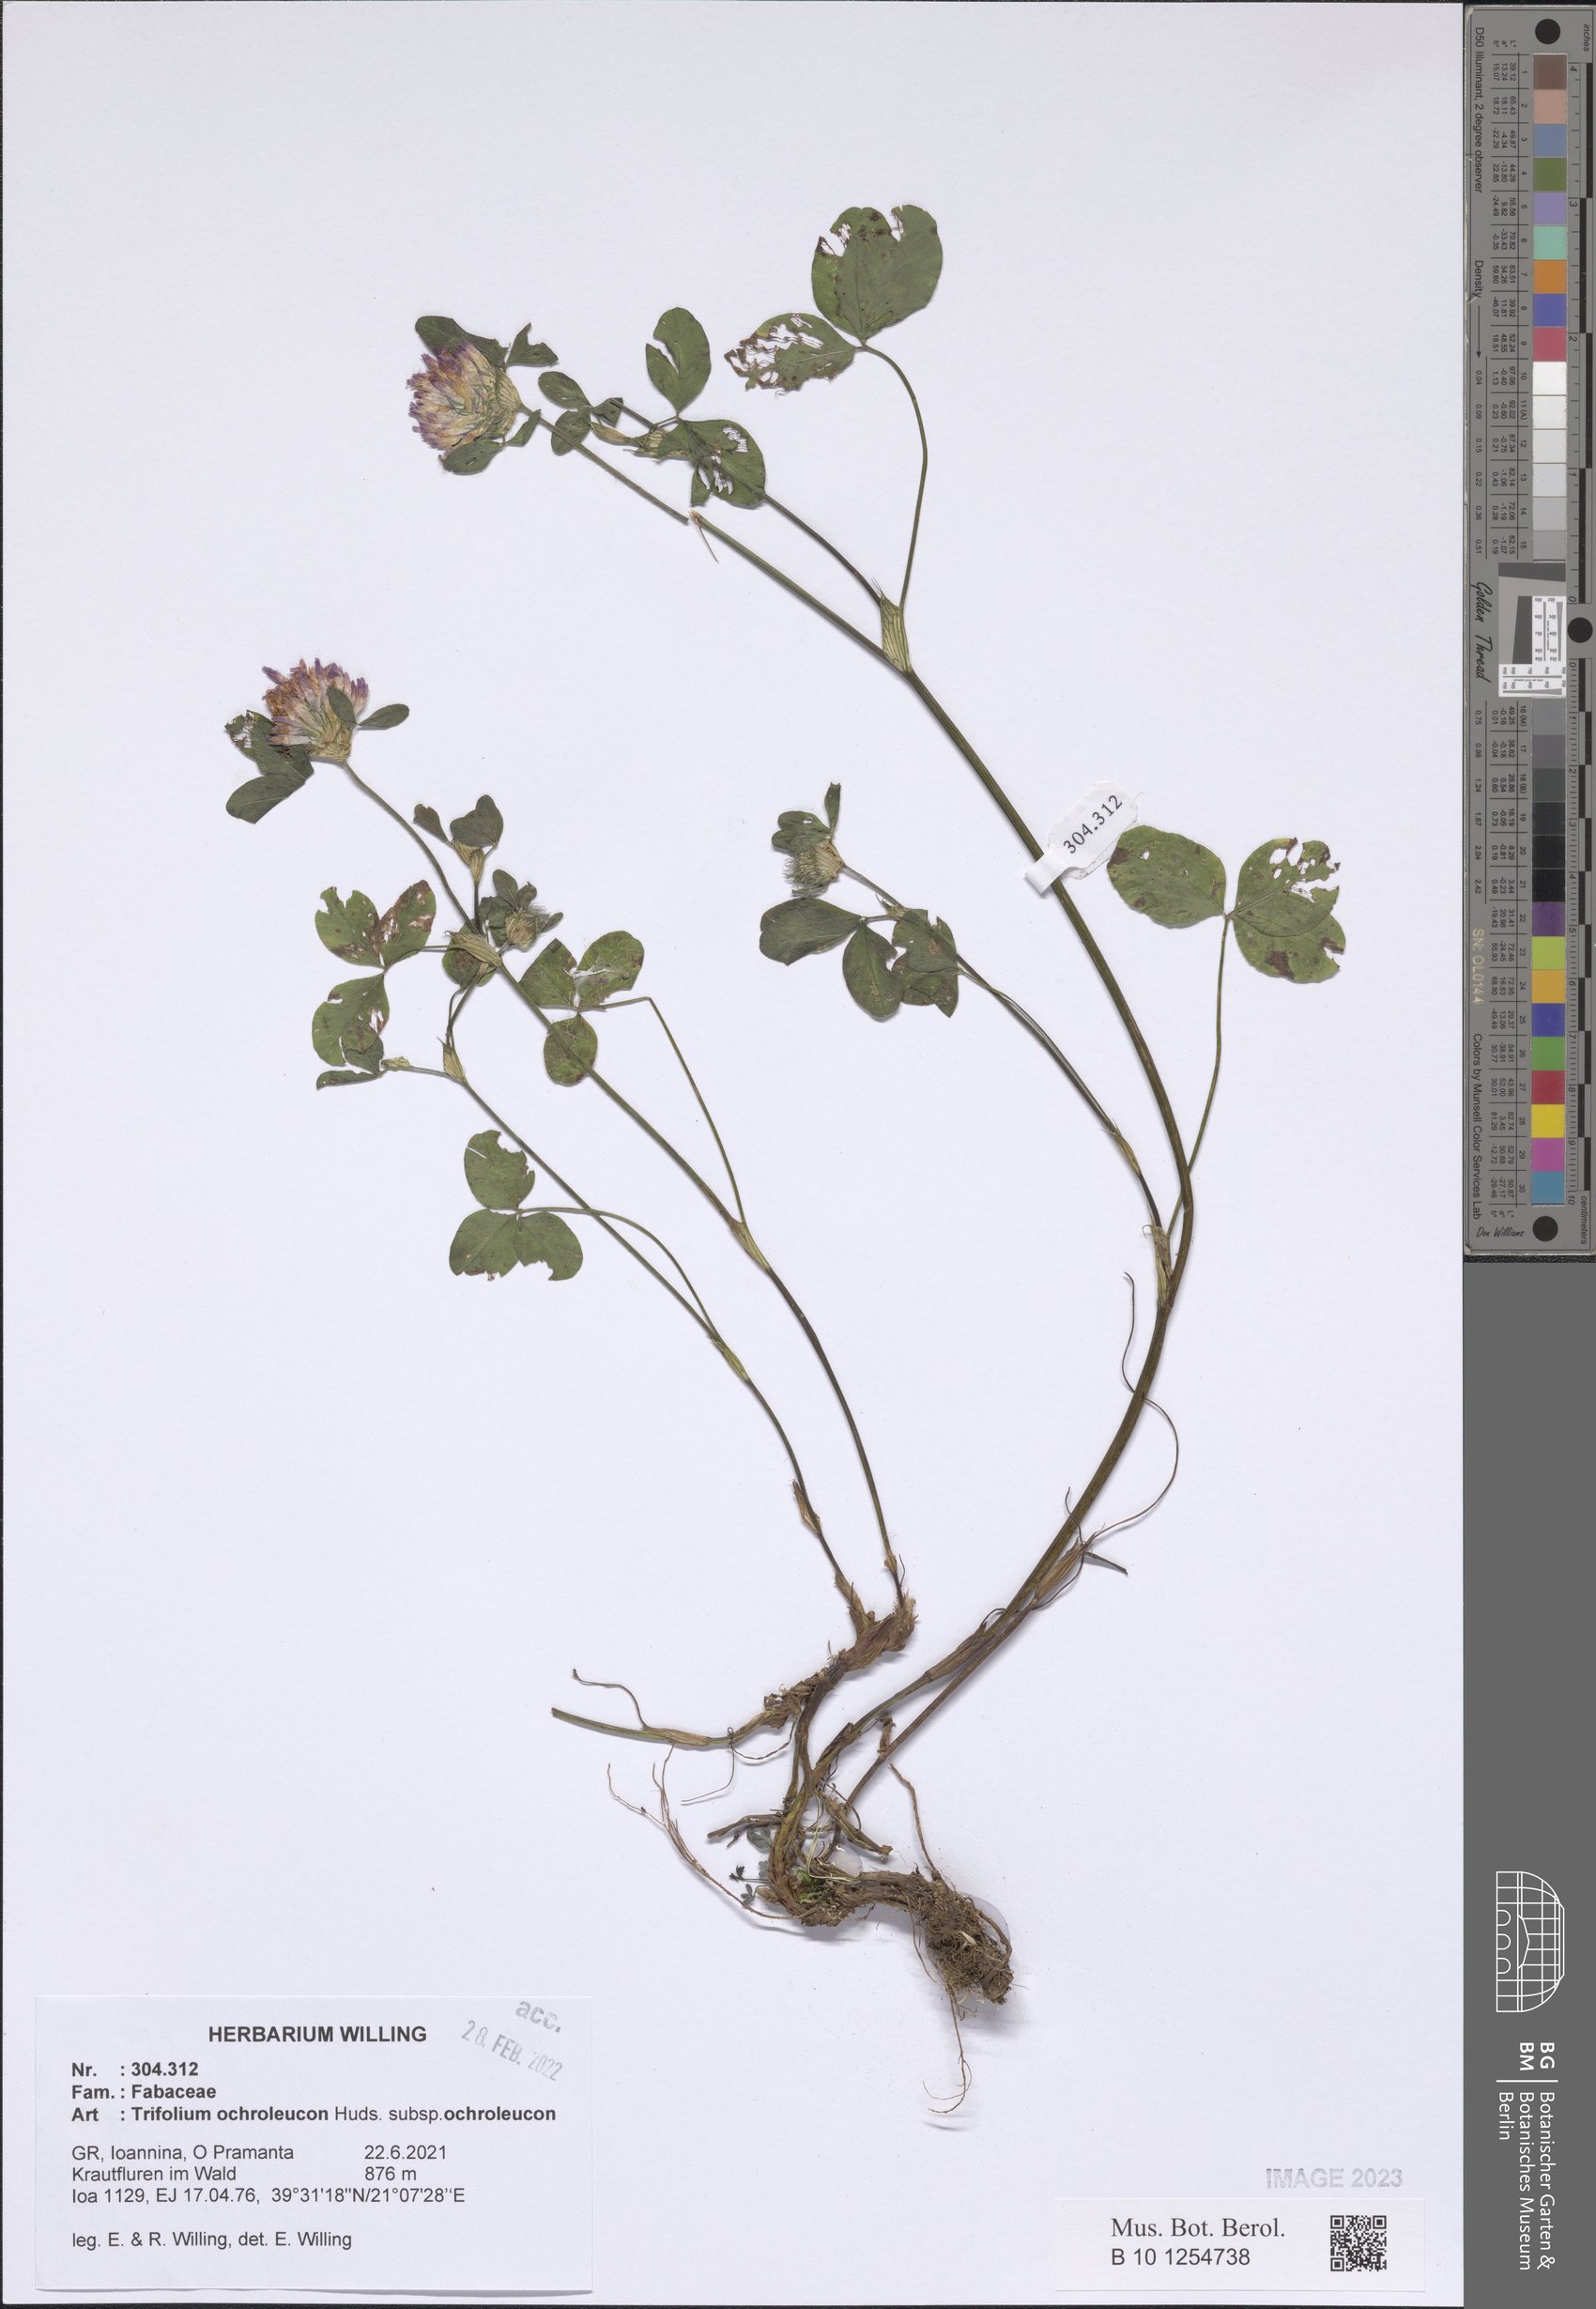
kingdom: Plantae
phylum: Tracheophyta
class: Magnoliopsida
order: Fabales
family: Fabaceae
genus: Trifolium
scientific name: Trifolium ochroleucon
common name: Sulphur clover
